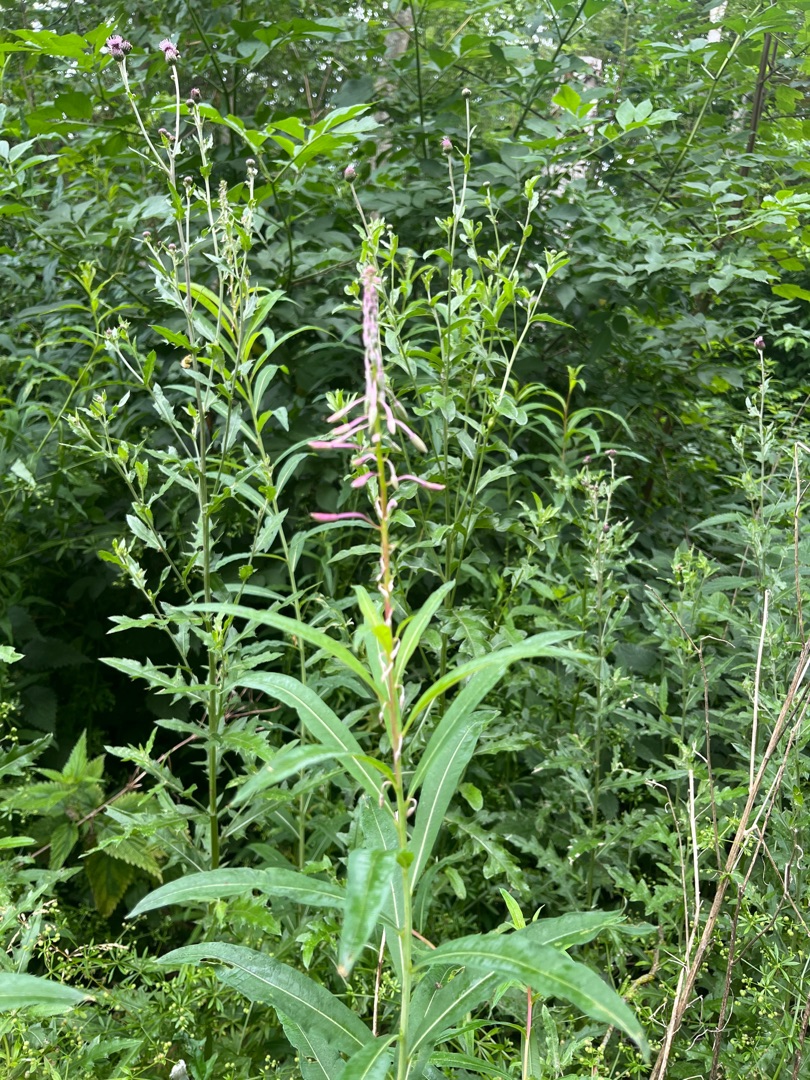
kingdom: Plantae
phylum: Tracheophyta
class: Magnoliopsida
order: Myrtales
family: Onagraceae
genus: Chamaenerion
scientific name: Chamaenerion angustifolium
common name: Gederams
